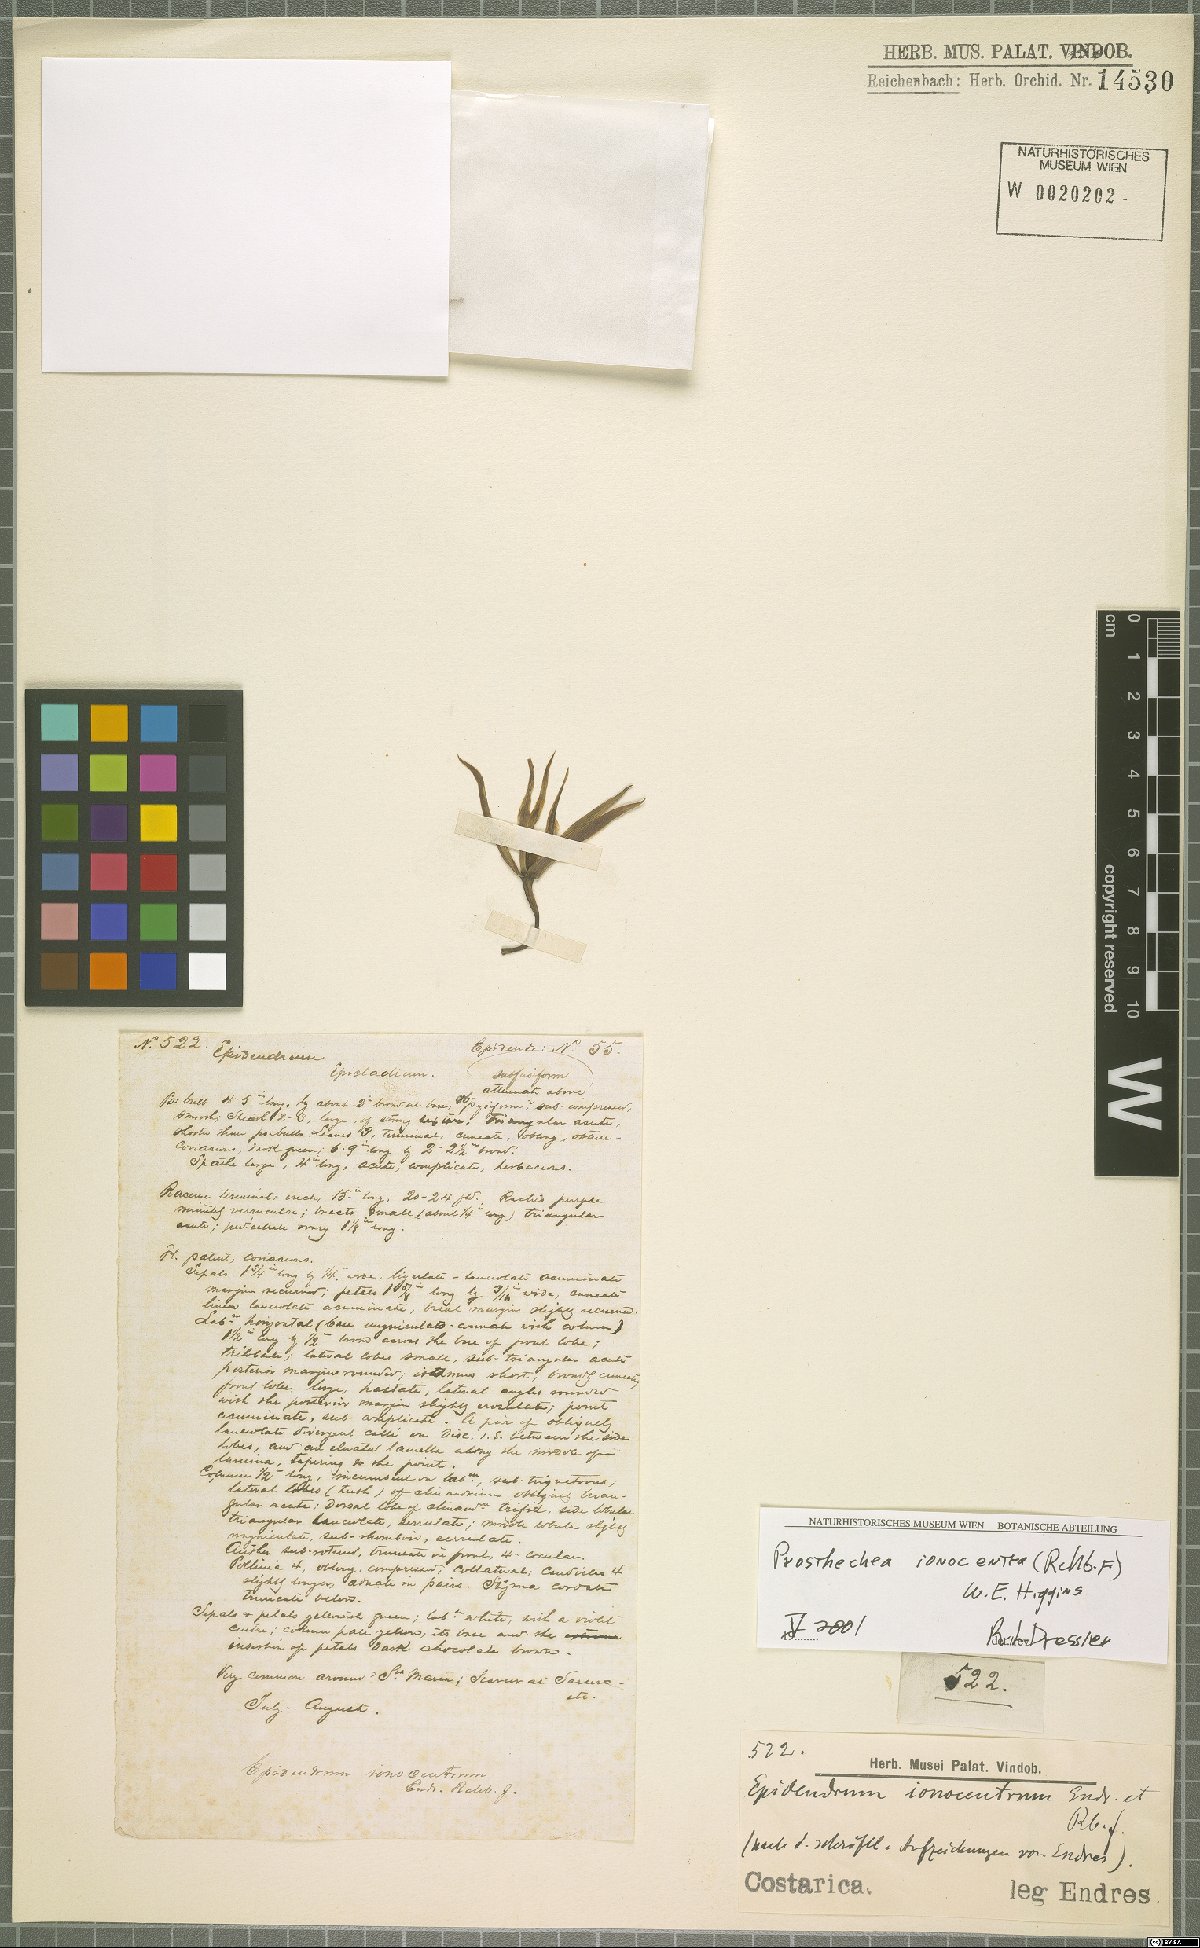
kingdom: Plantae
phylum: Tracheophyta
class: Liliopsida
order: Asparagales
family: Orchidaceae
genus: Prosthechea
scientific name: Prosthechea ionocentra
